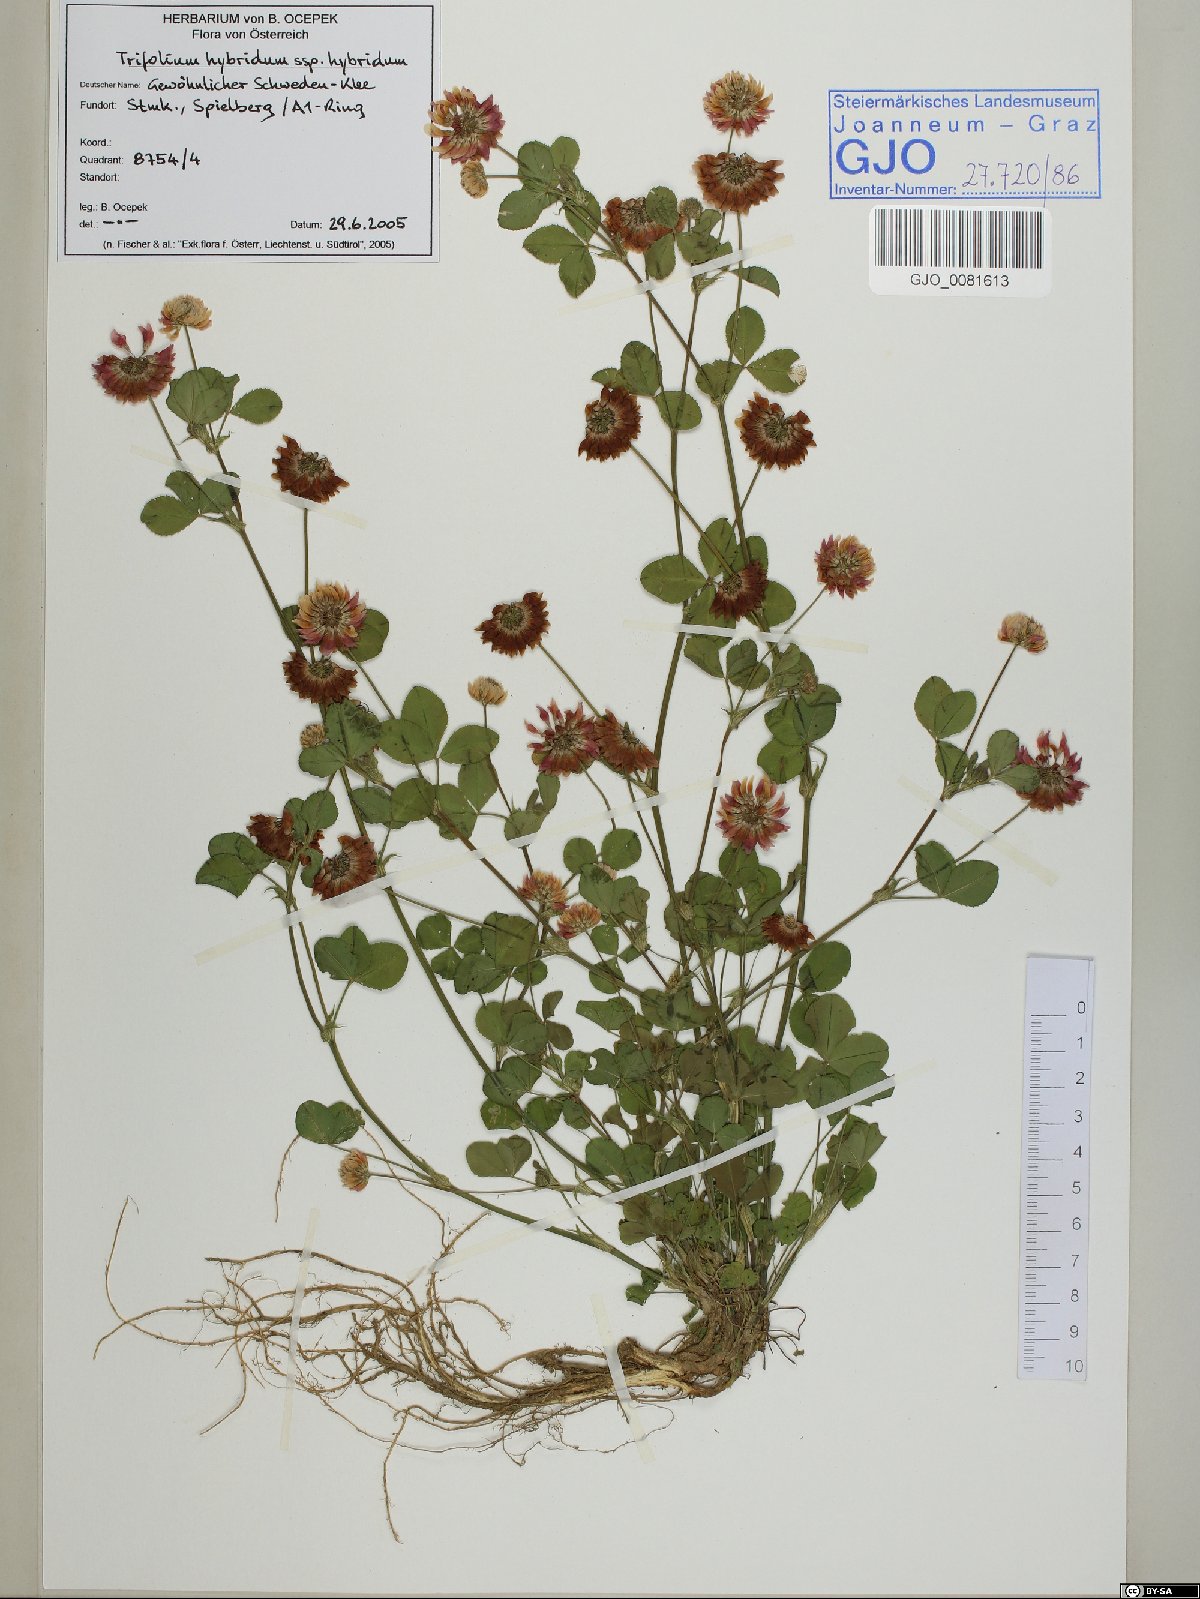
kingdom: Plantae
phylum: Tracheophyta
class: Magnoliopsida
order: Fabales
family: Fabaceae
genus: Trifolium
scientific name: Trifolium hybridum
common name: Alsike clover
